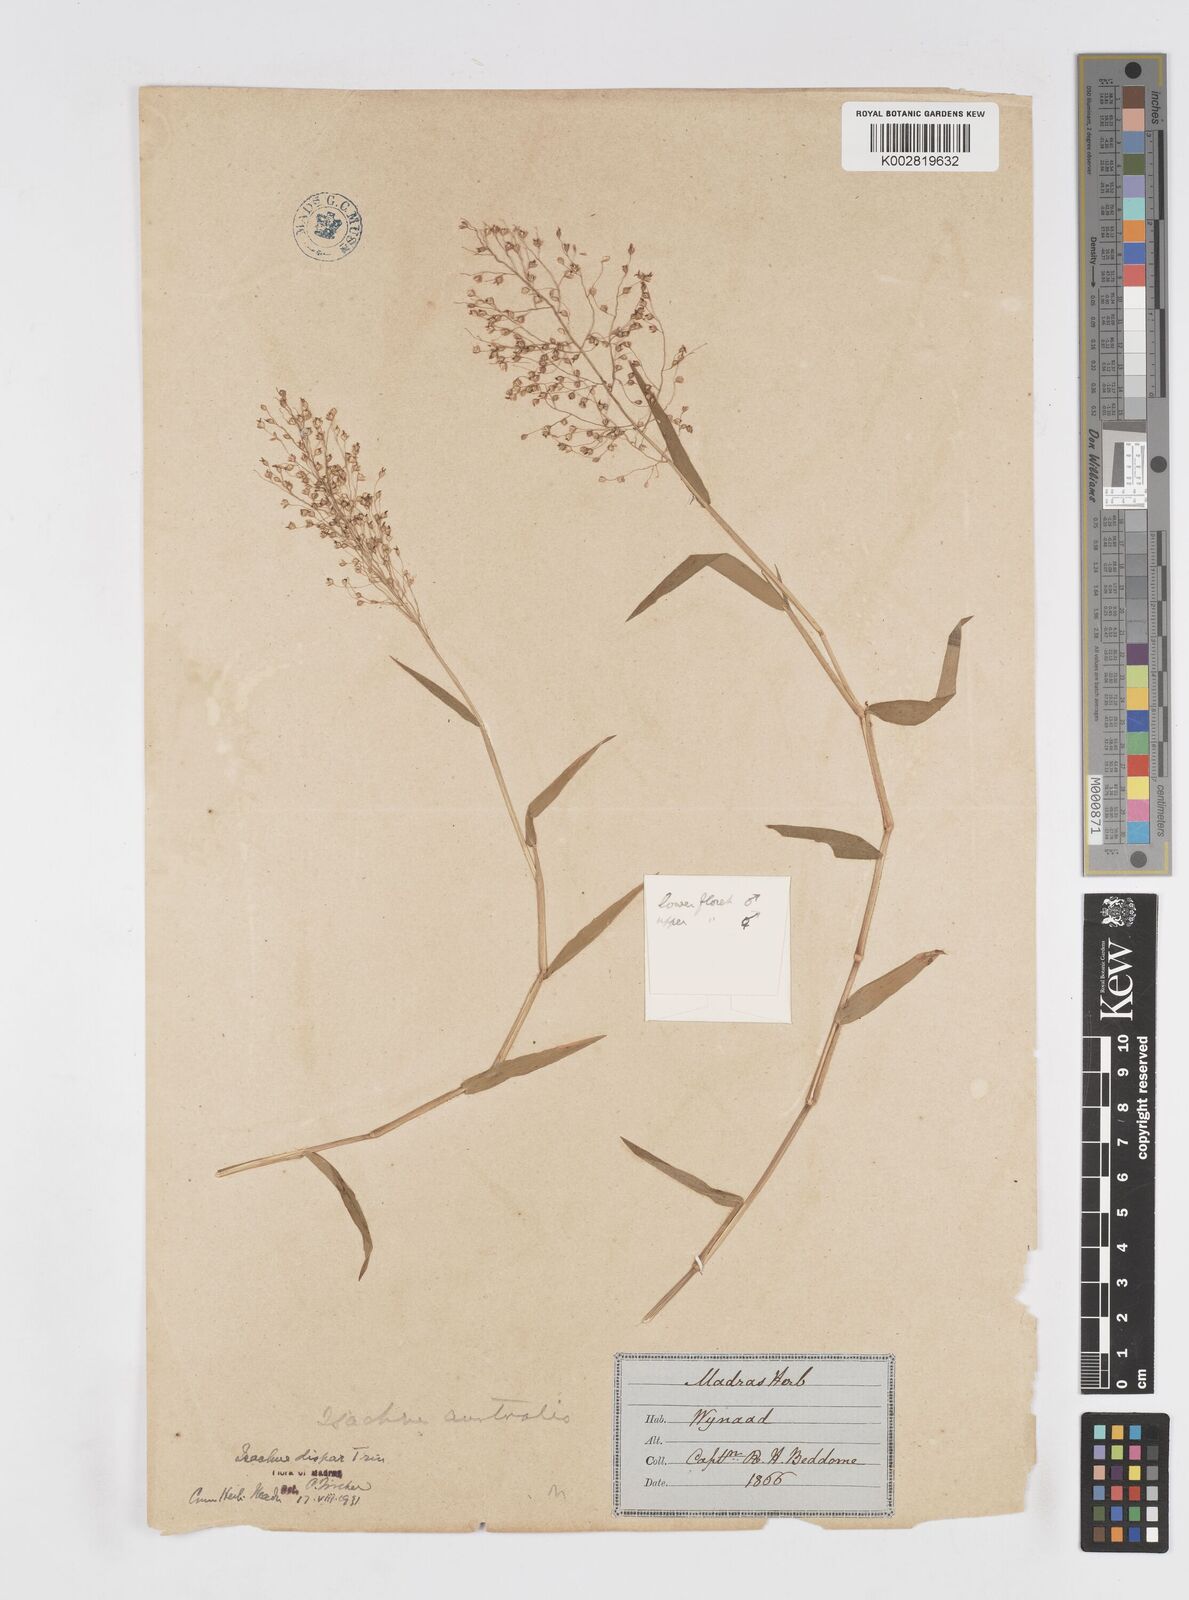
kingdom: Plantae
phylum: Tracheophyta
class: Liliopsida
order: Poales
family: Poaceae
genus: Isachne
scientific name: Isachne globosa
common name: Swamp millet
